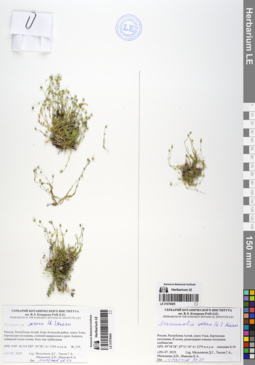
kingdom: Plantae
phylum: Tracheophyta
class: Magnoliopsida
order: Caryophyllales
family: Caryophyllaceae
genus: Sabulina
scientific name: Sabulina verna
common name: Spring sandwort
